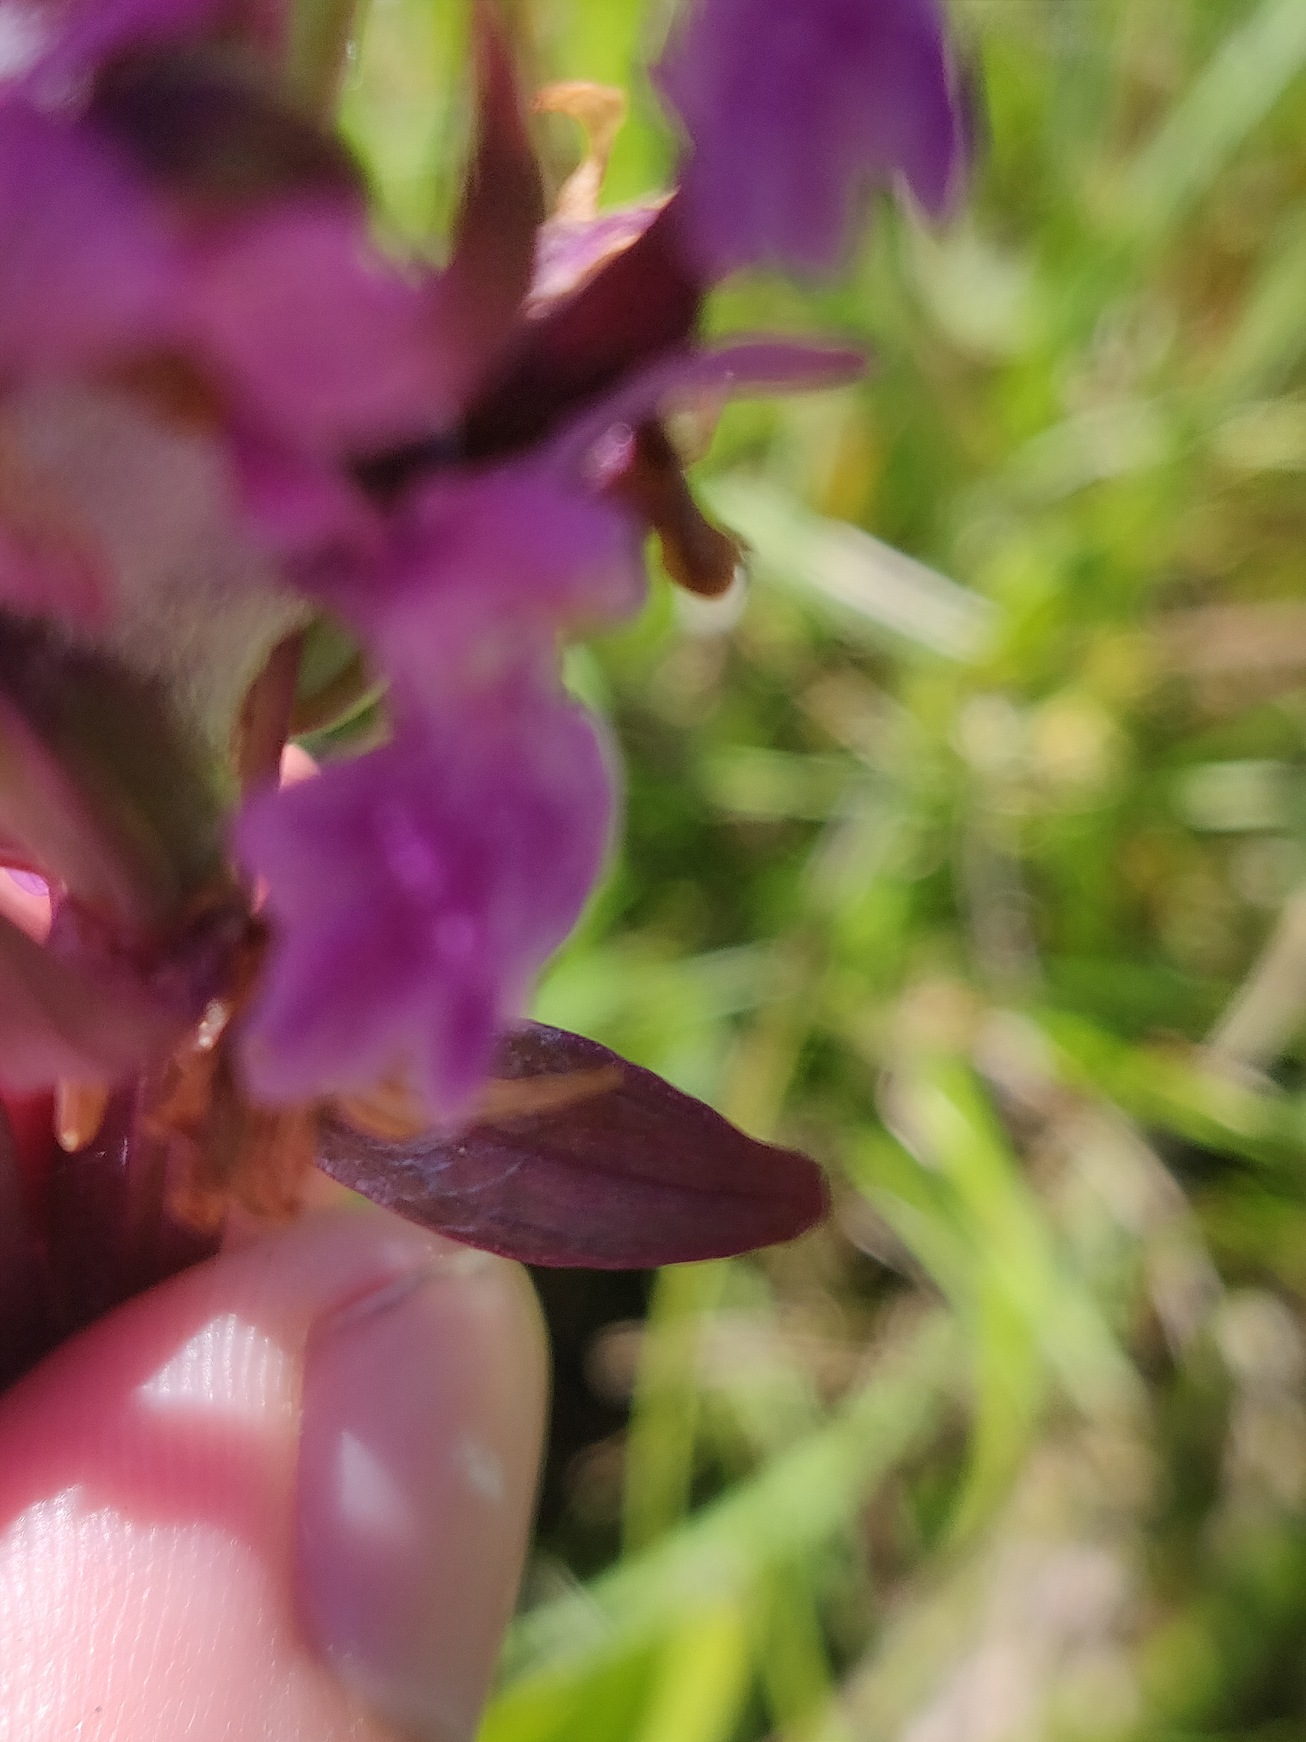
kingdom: Plantae
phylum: Tracheophyta
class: Liliopsida
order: Asparagales
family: Orchidaceae
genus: Dactylorhiza
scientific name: Dactylorhiza incarnata
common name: Kødfarvet gøgeurt
